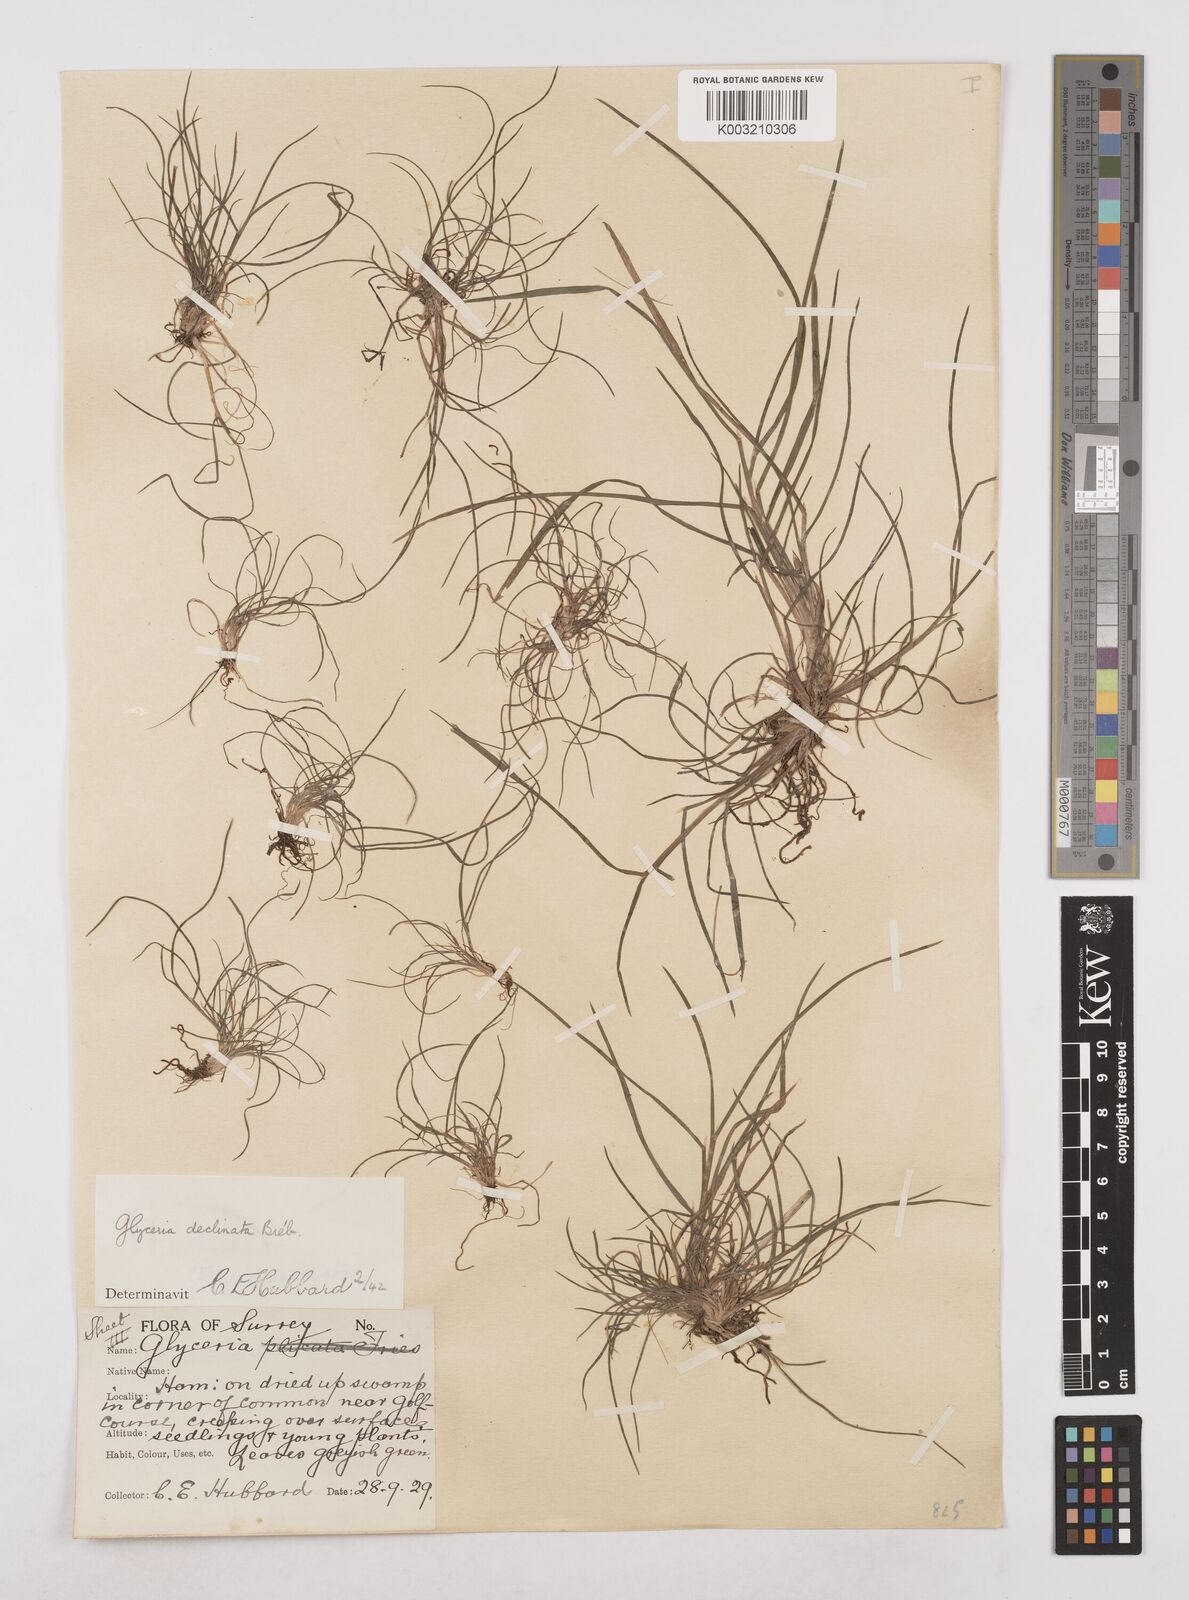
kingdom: Plantae
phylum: Tracheophyta
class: Liliopsida
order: Poales
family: Poaceae
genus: Glyceria
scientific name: Glyceria declinata
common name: Small sweet-grass
